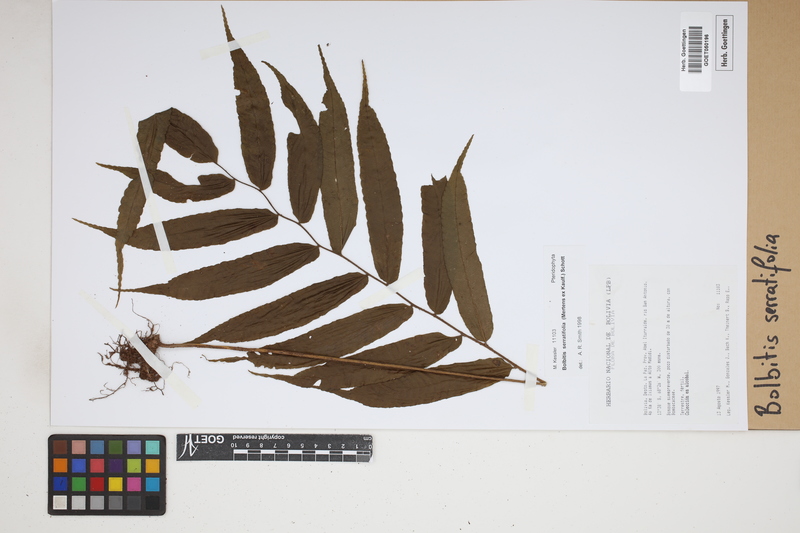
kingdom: Plantae
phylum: Tracheophyta
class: Polypodiopsida
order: Polypodiales
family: Dryopteridaceae
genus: Bolbitis
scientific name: Bolbitis serratifolia
